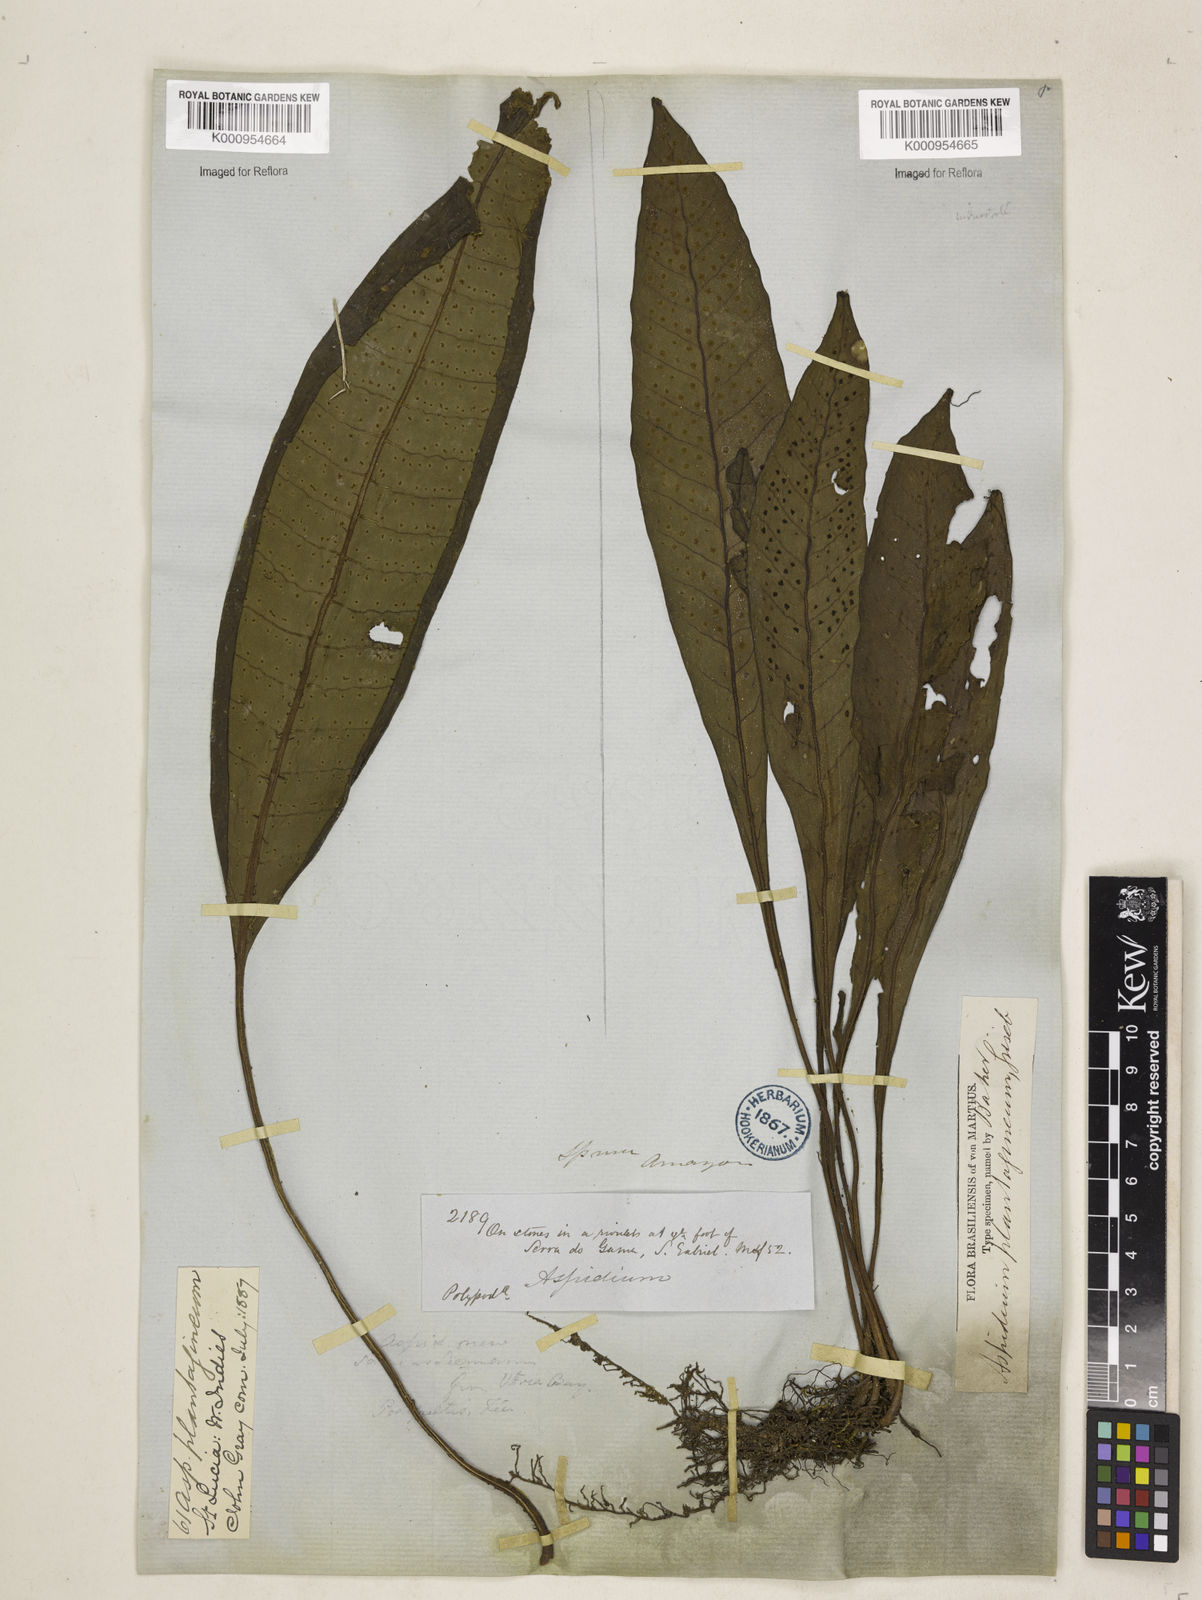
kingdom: Plantae
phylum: Tracheophyta
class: Polypodiopsida
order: Polypodiales
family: Lomariopsidaceae
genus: Dracoglossum
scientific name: Dracoglossum sinuatum
